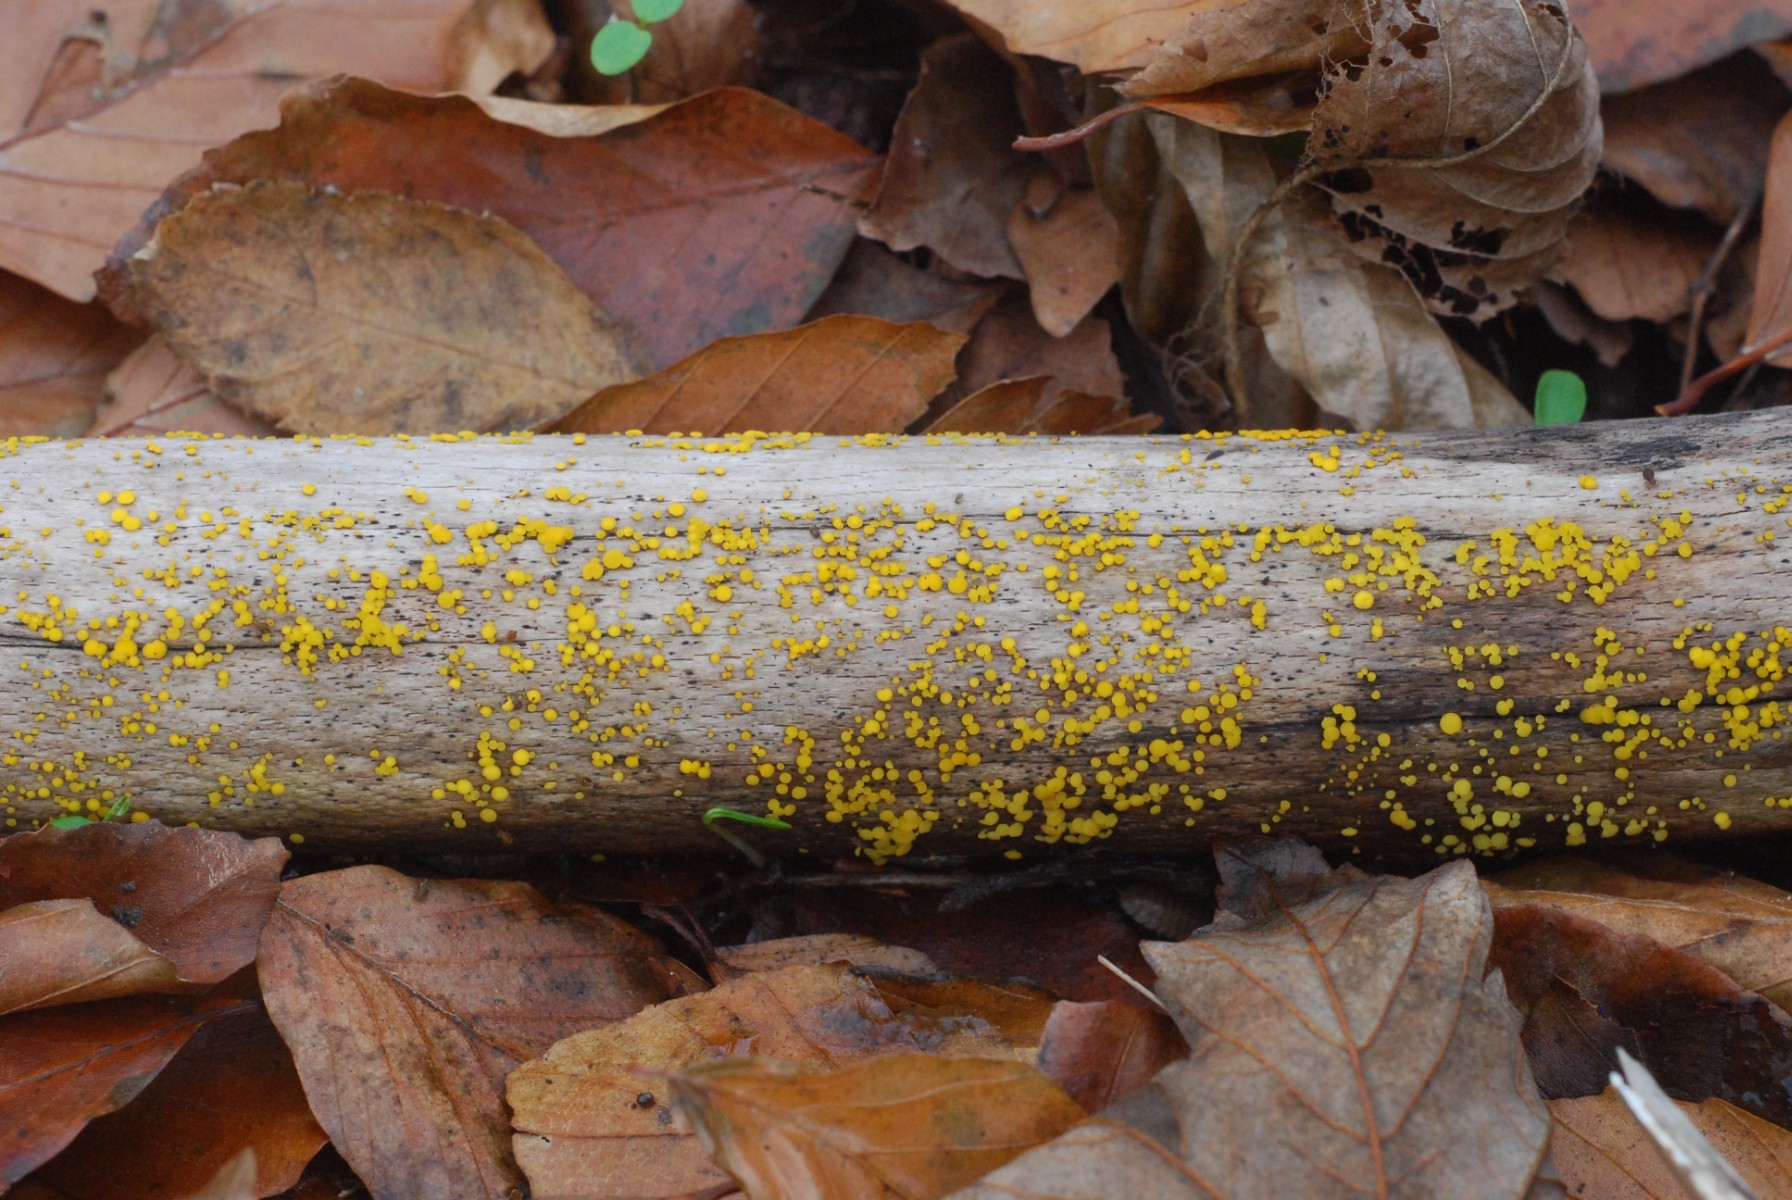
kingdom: Fungi
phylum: Ascomycota
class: Leotiomycetes
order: Helotiales
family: Pezizellaceae
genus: Calycina
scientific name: Calycina citrina
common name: almindelig gulskive
